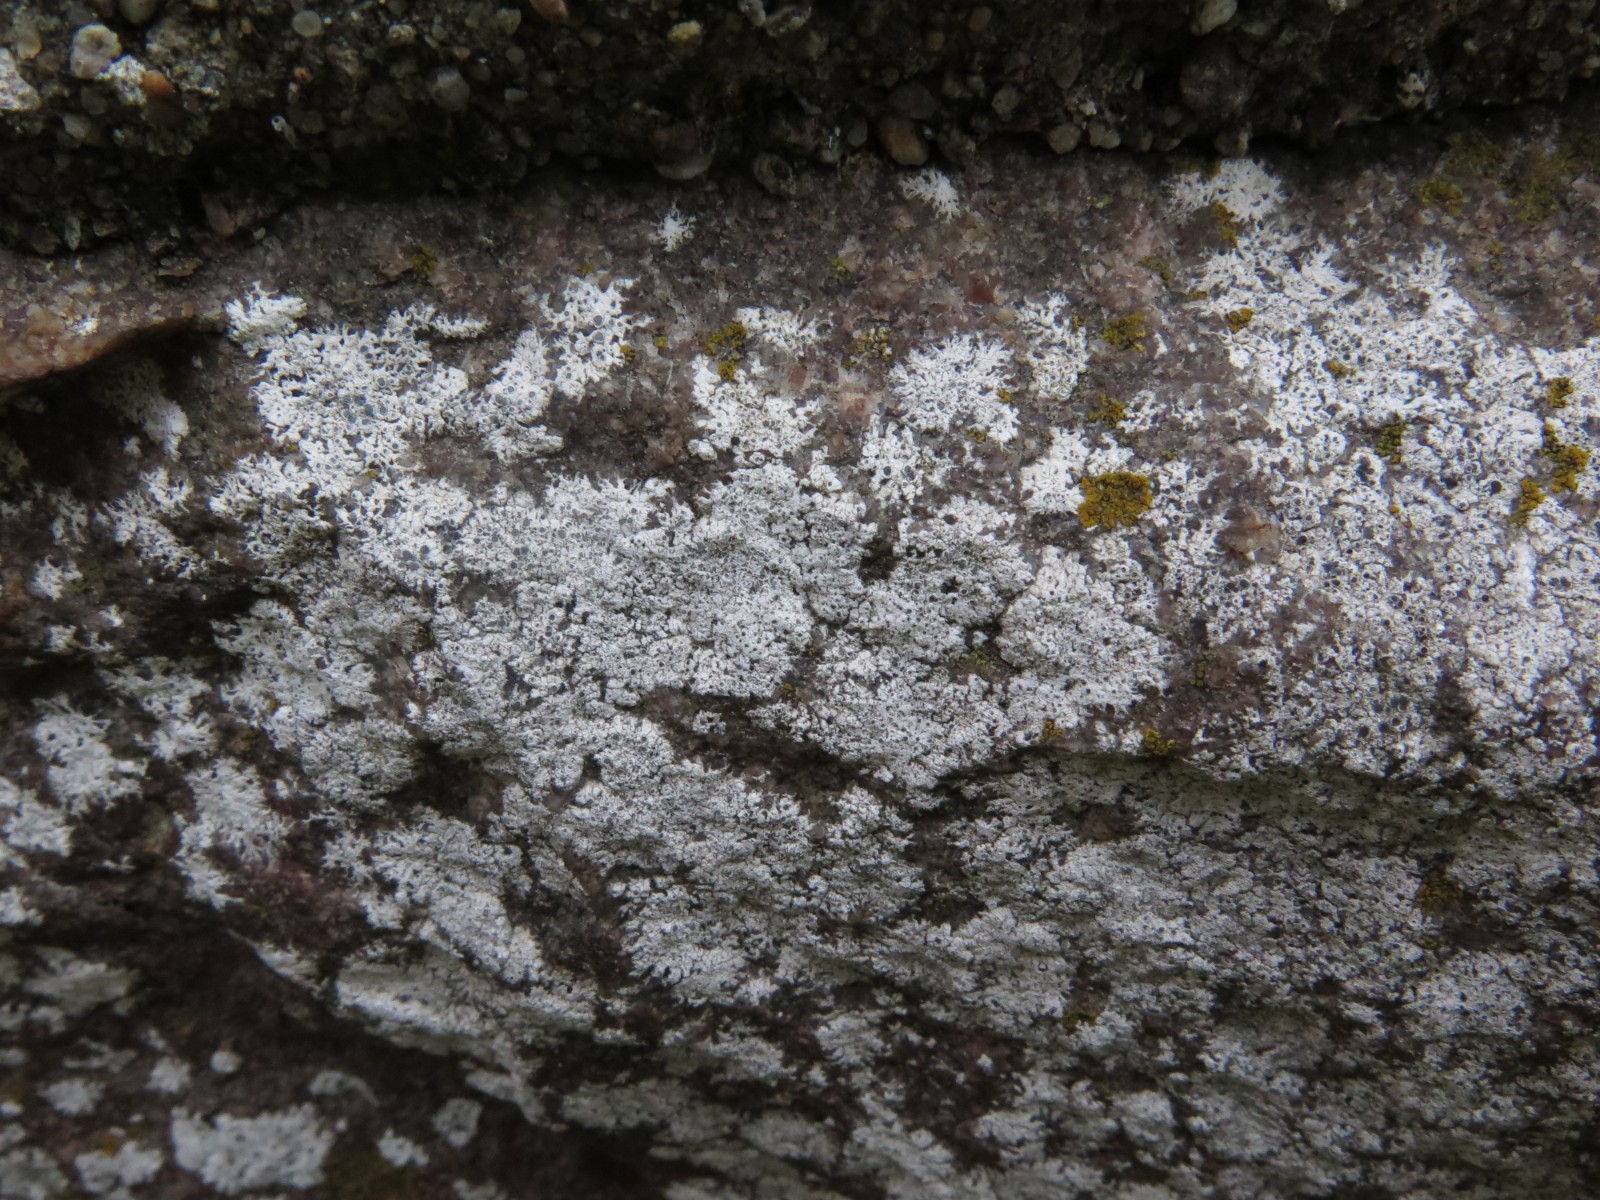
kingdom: Fungi
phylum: Ascomycota
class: Lecanoromycetes
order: Lecanorales
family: Lecanoraceae
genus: Polyozosia
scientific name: Polyozosia albescens
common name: cement-kantskivelav
